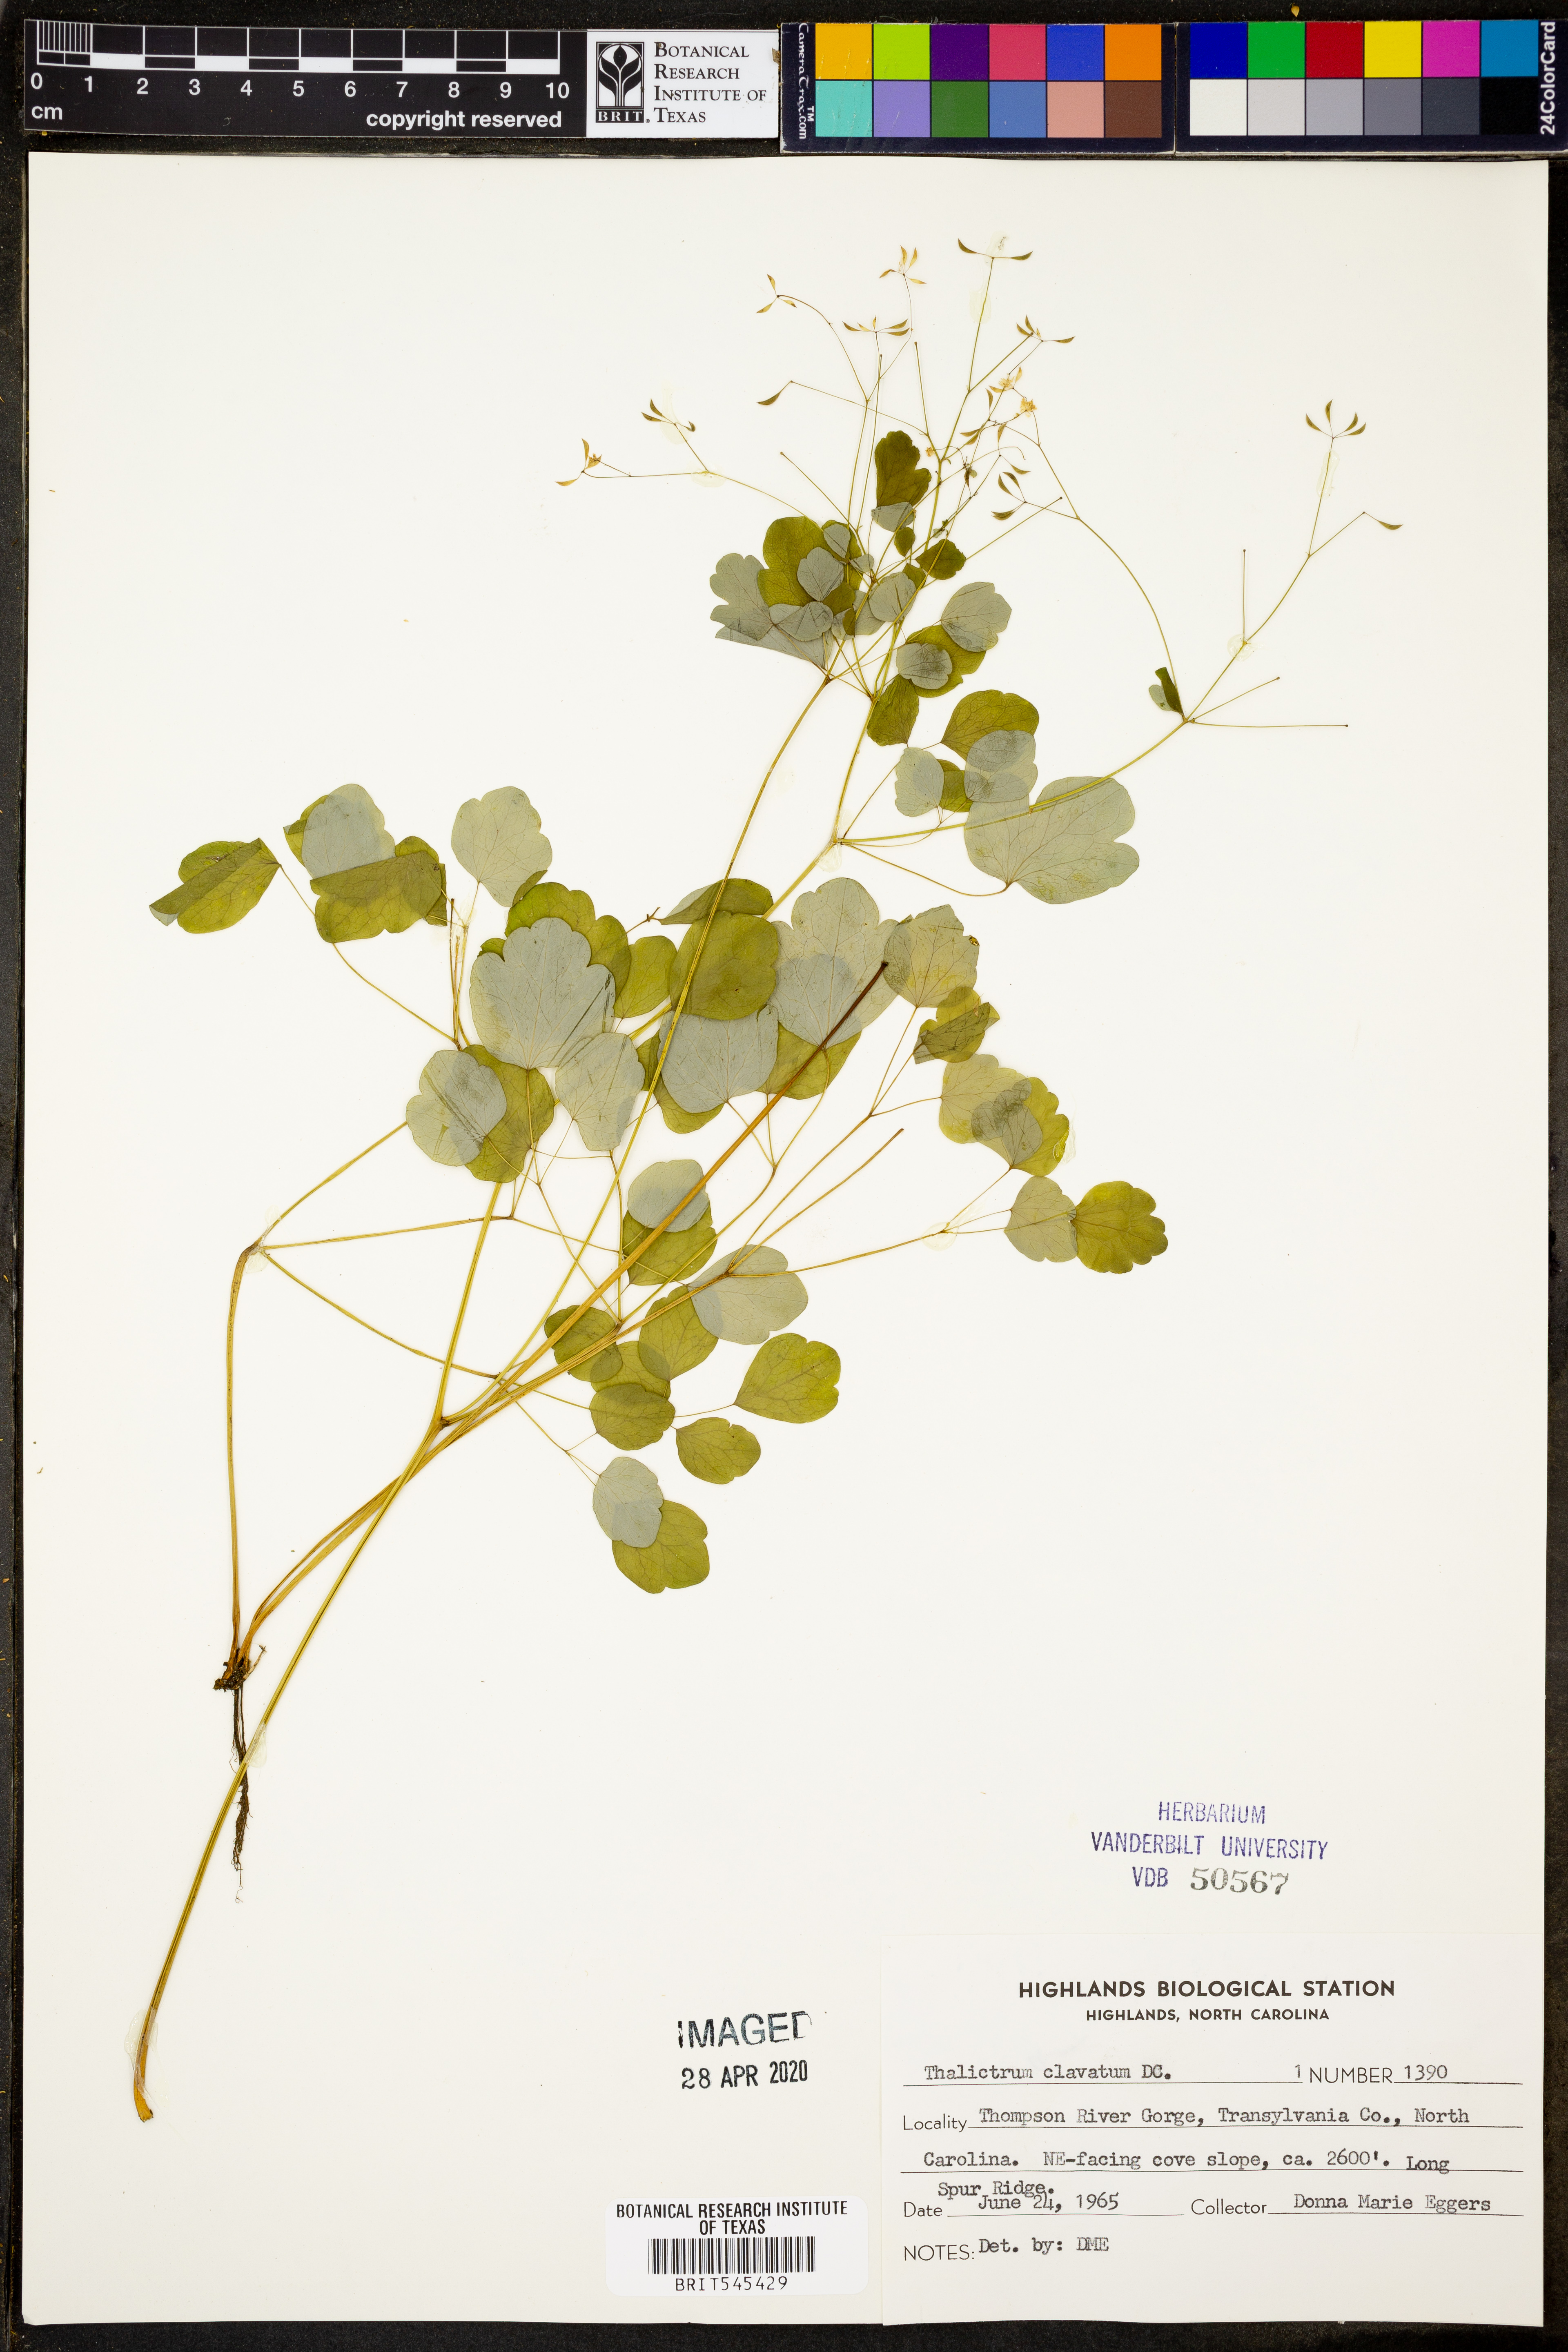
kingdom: Plantae
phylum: Tracheophyta
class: Magnoliopsida
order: Ranunculales
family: Ranunculaceae
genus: Thalictrum
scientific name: Thalictrum clavatum
